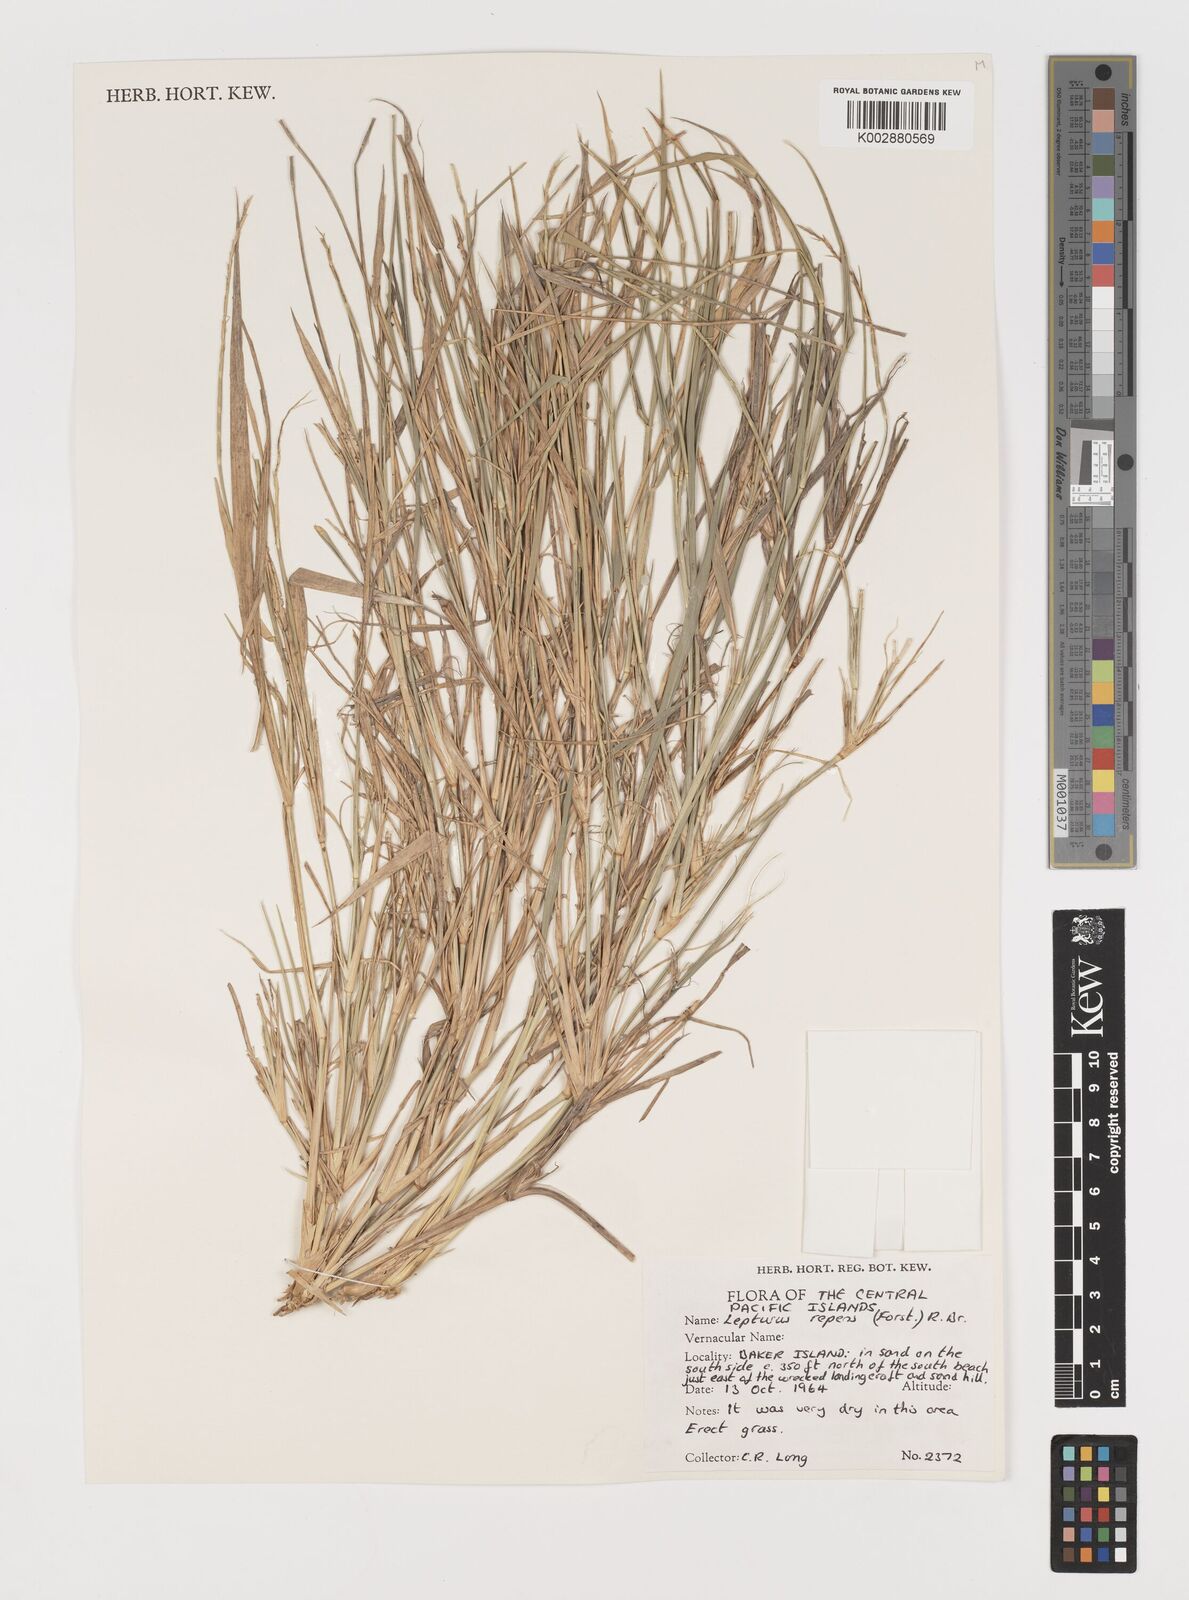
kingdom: Plantae
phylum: Tracheophyta
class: Liliopsida
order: Poales
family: Poaceae
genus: Lepturus
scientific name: Lepturus repens
